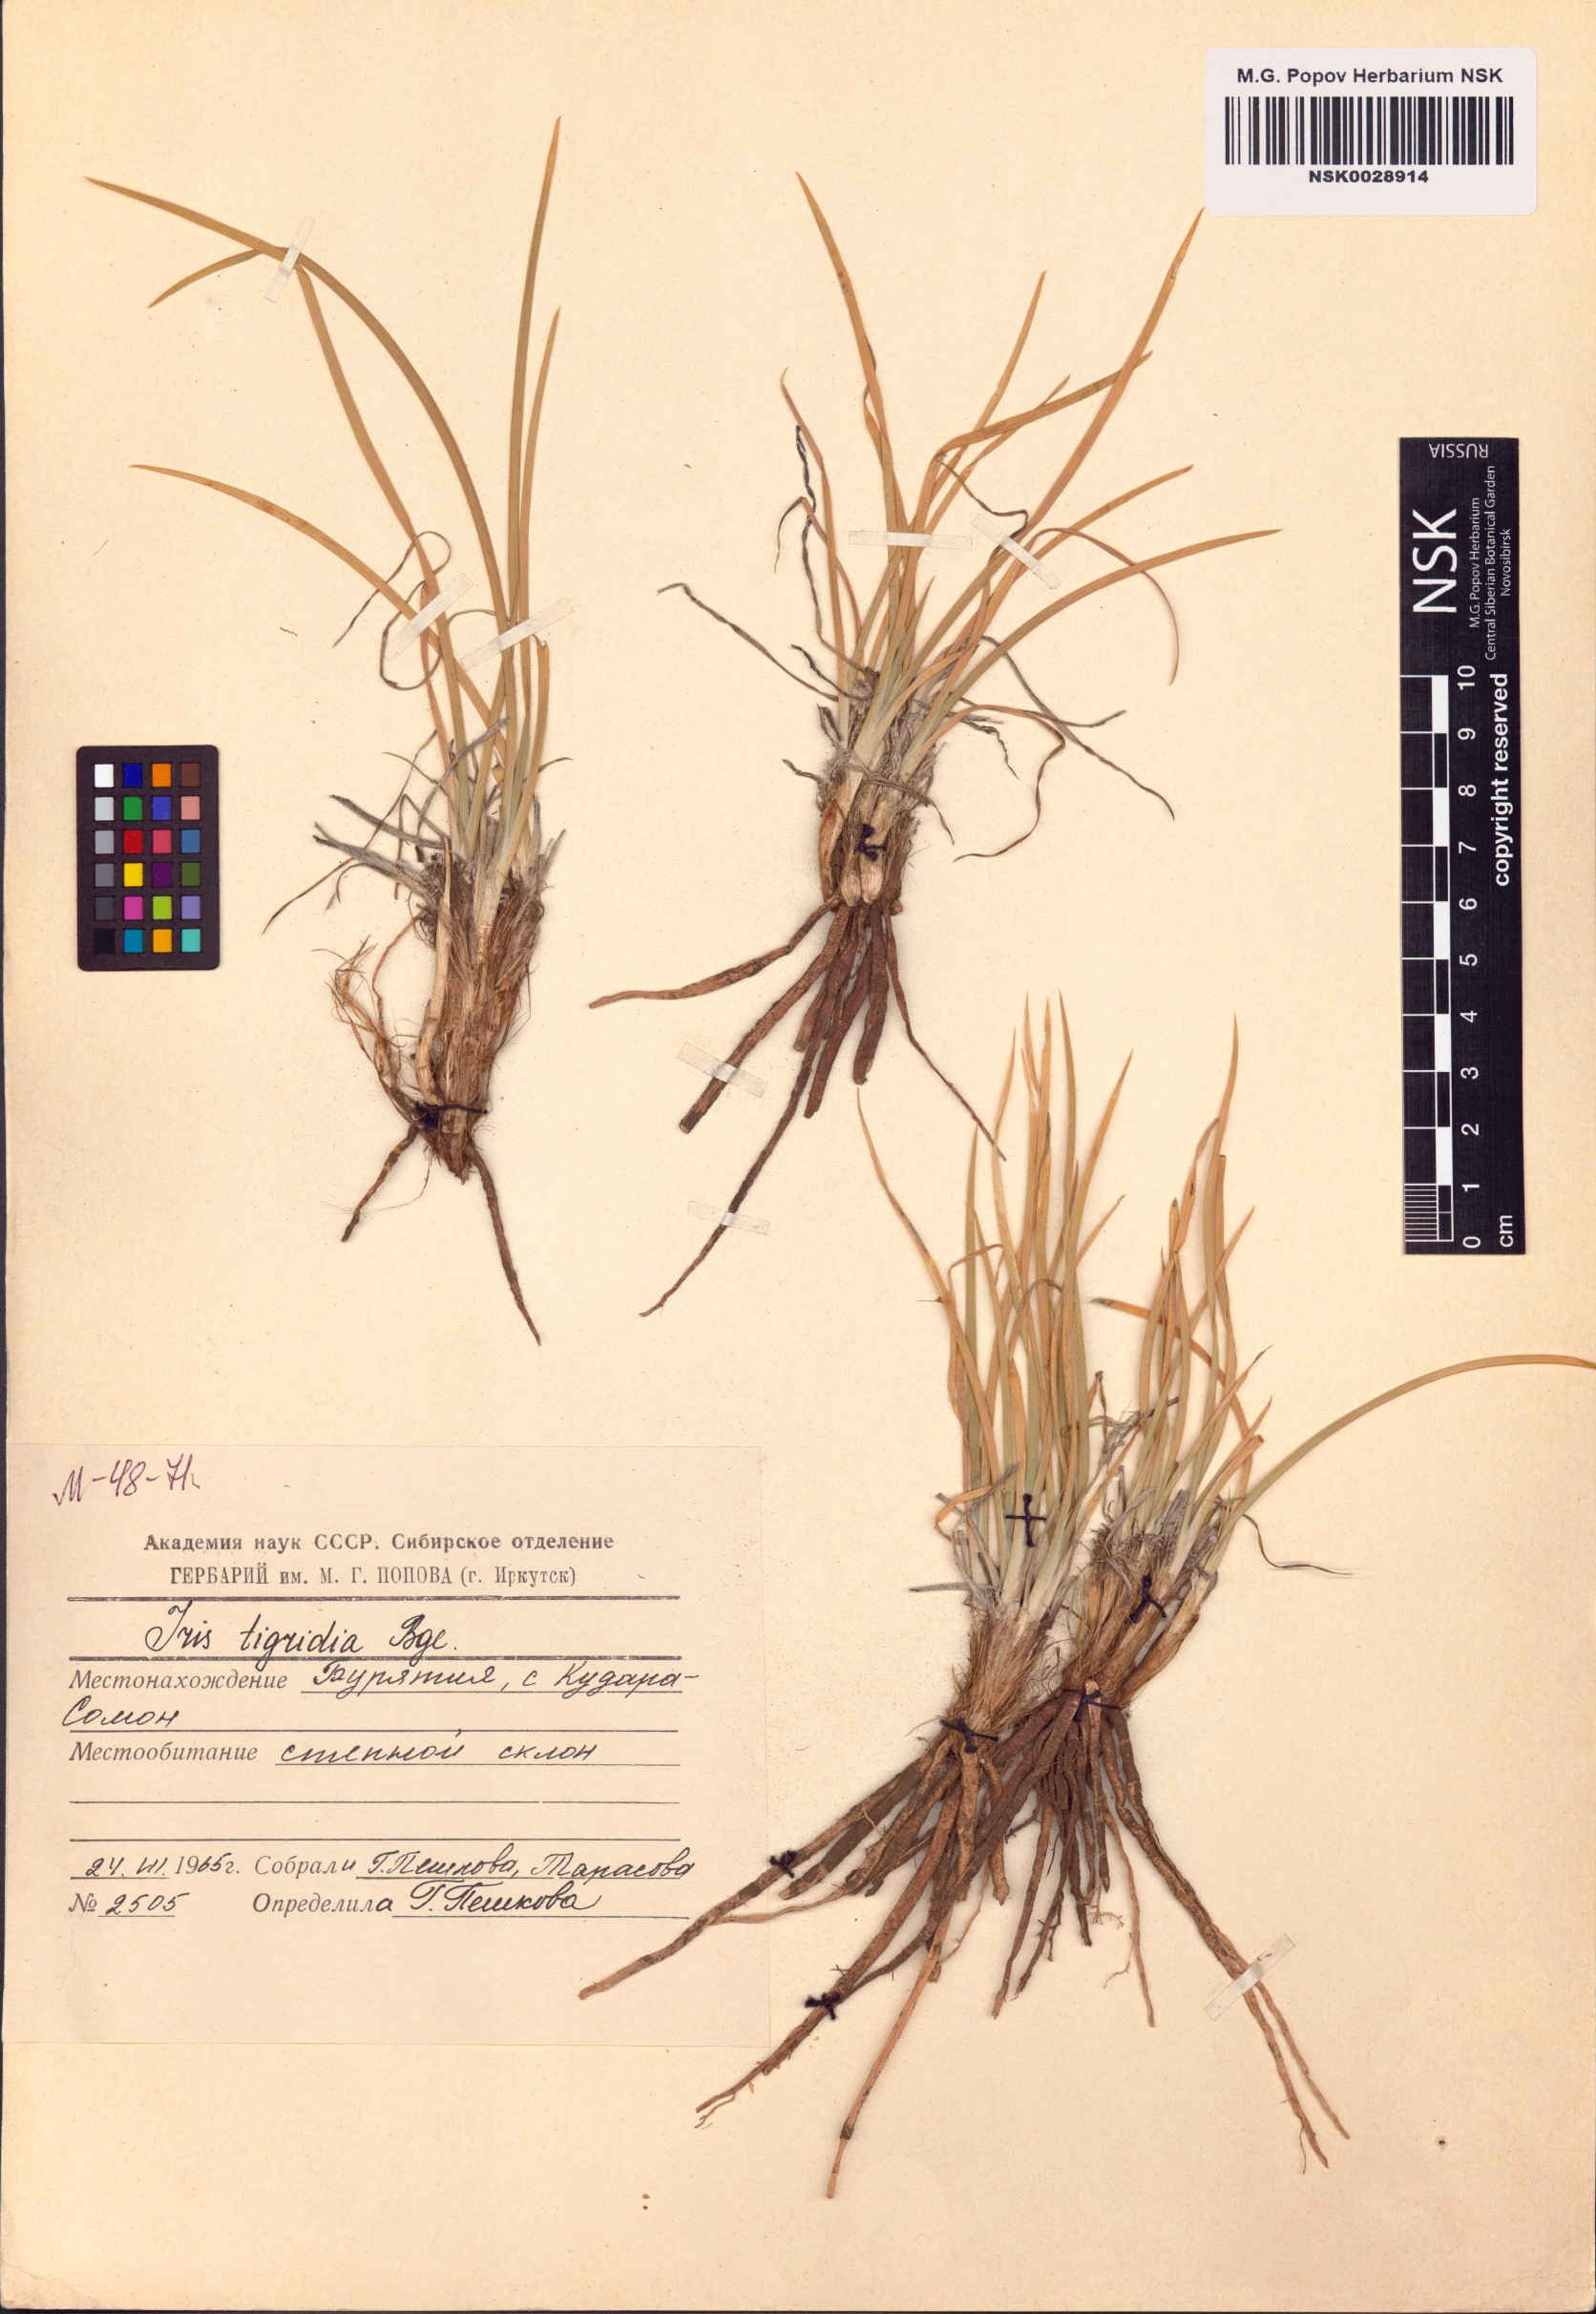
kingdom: Plantae
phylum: Tracheophyta
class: Liliopsida
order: Asparagales
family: Iridaceae
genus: Iris
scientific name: Iris tigridia
